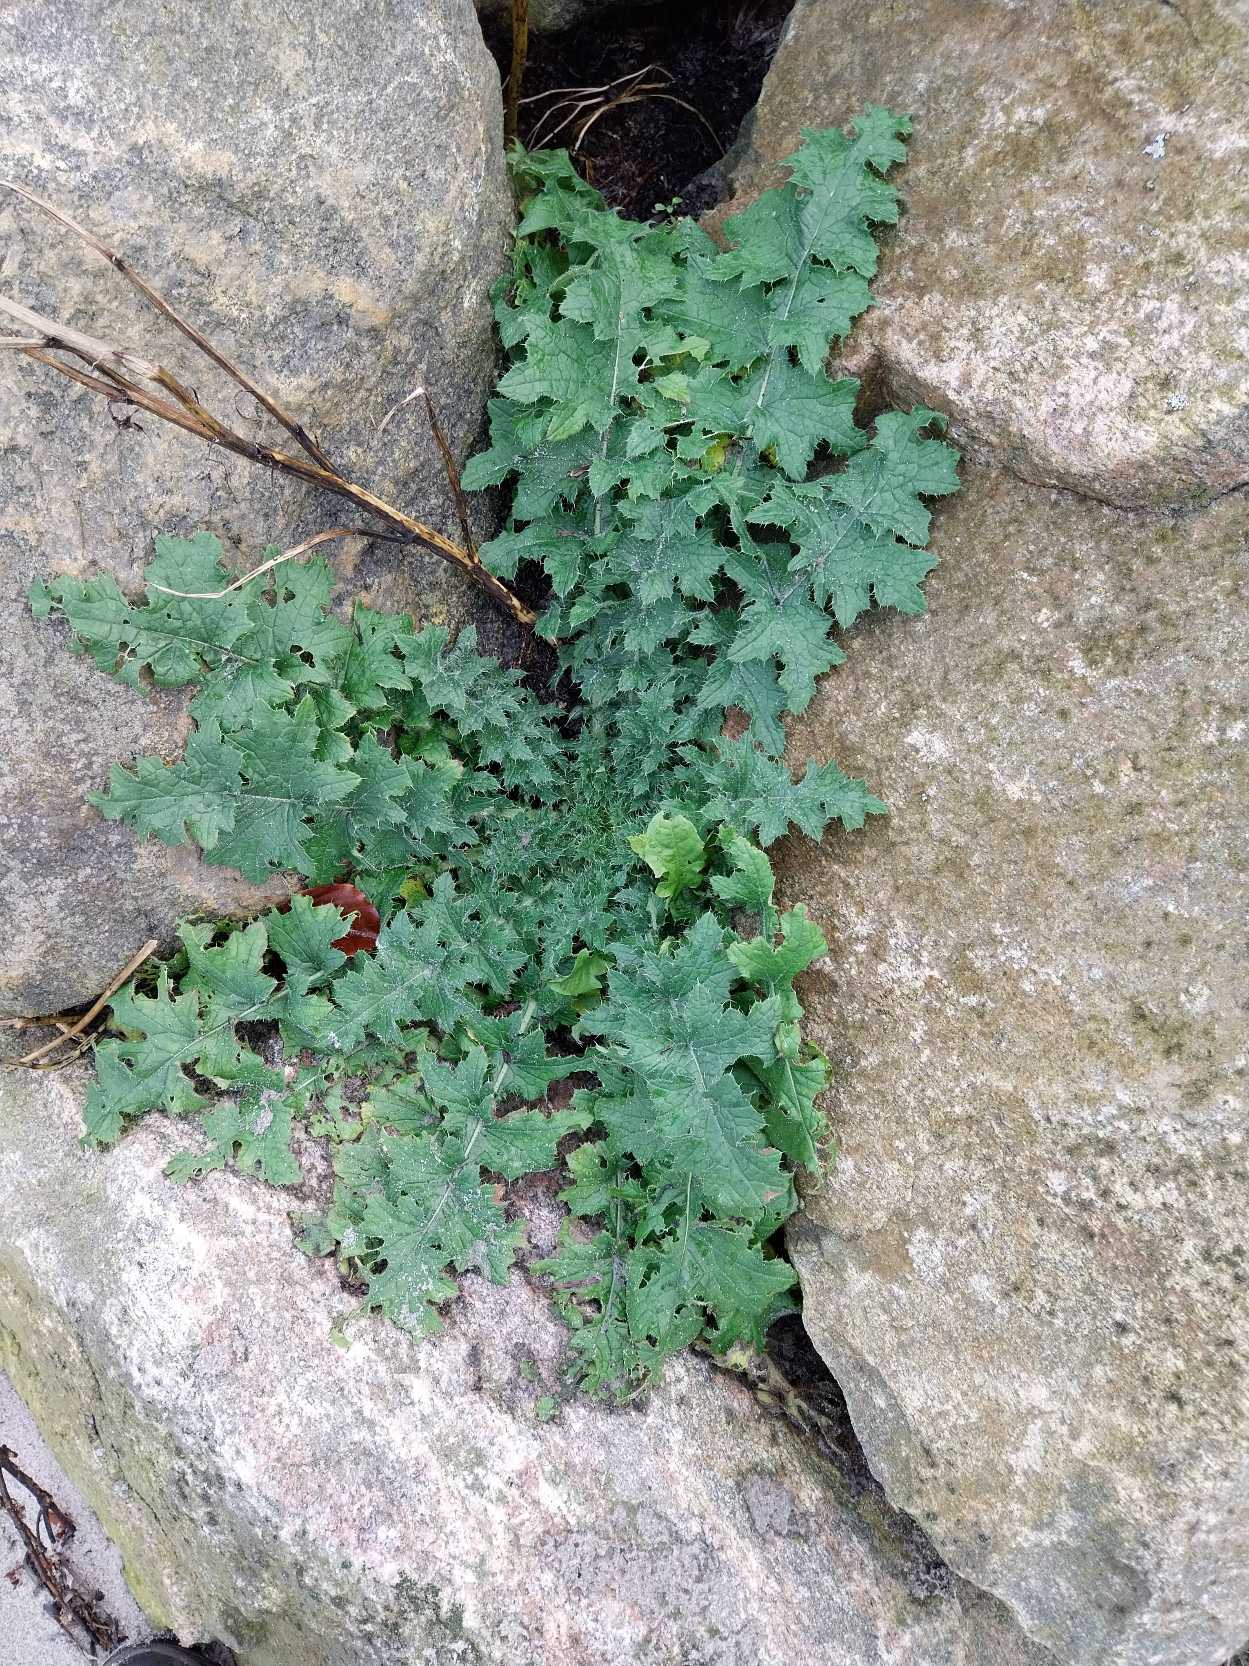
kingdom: Plantae
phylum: Tracheophyta
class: Magnoliopsida
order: Asterales
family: Asteraceae
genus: Carduus
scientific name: Carduus crispus
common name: Kruset tidsel
